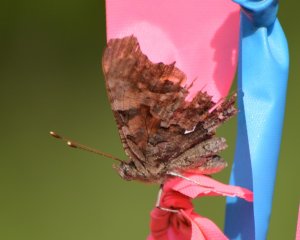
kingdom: Animalia
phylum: Arthropoda
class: Insecta
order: Lepidoptera
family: Nymphalidae
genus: Polygonia
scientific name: Polygonia faunus
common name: Green Comma
